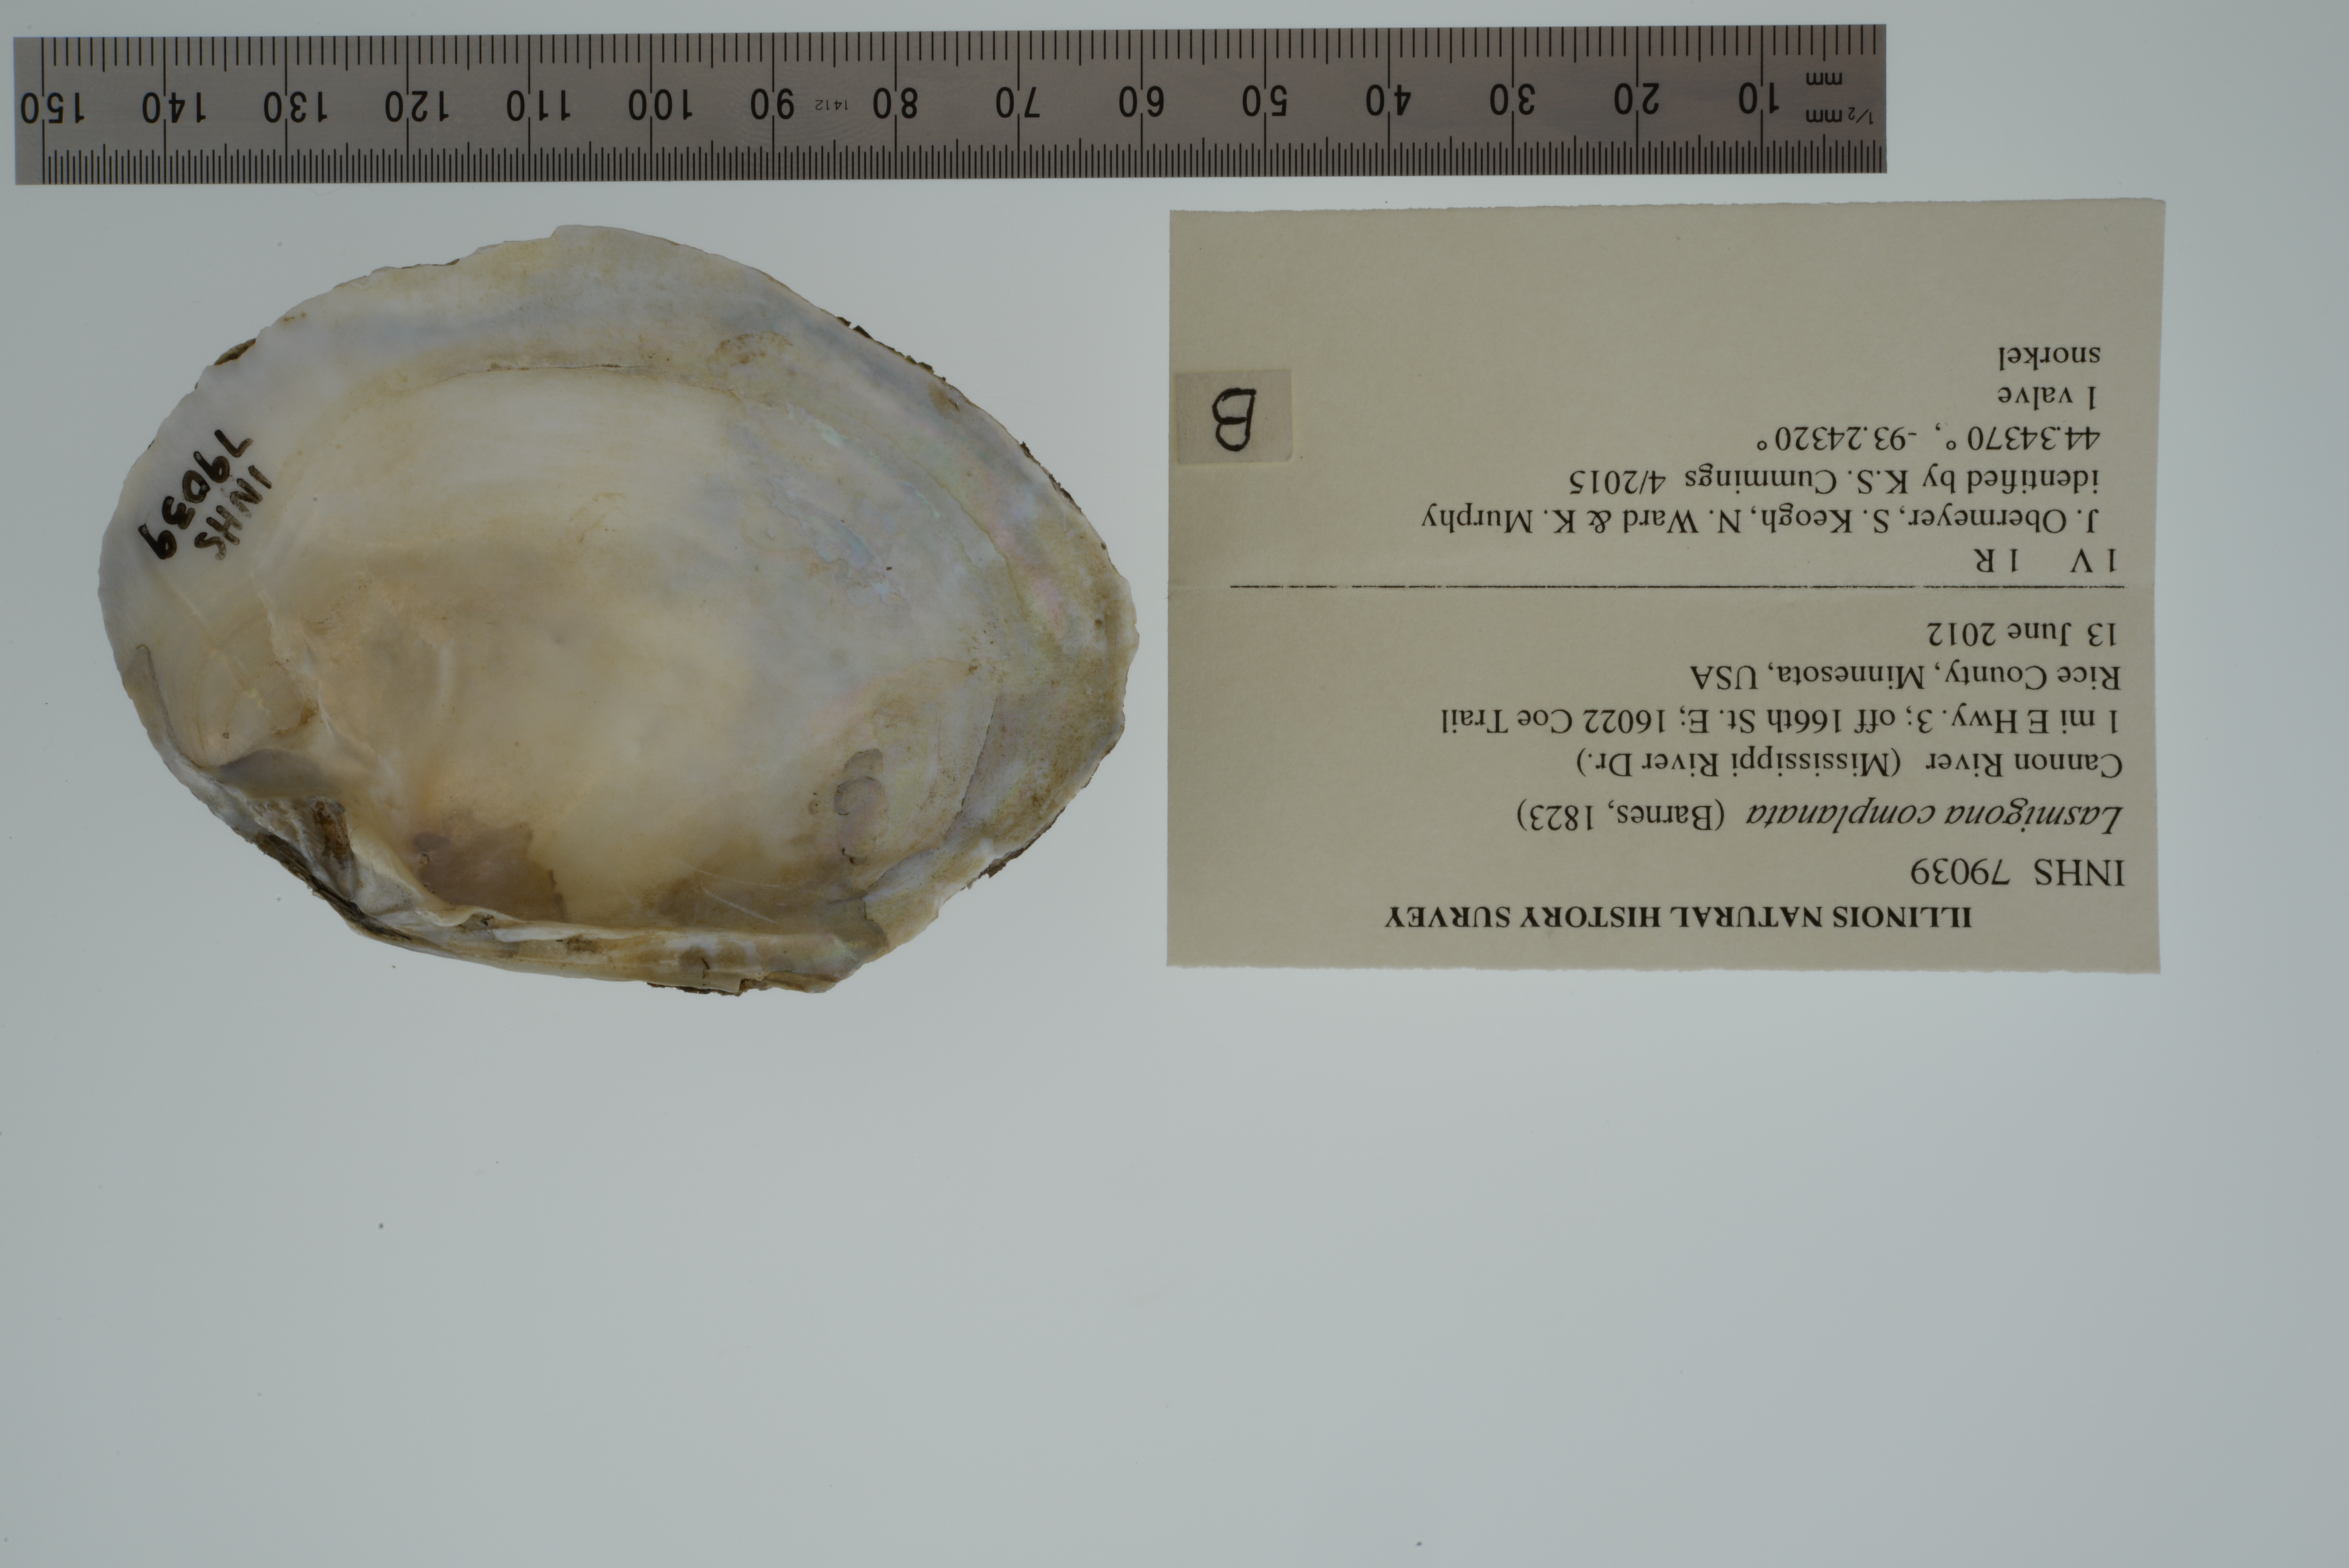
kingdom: Animalia
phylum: Mollusca
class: Bivalvia
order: Unionida
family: Unionidae
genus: Lasmigona
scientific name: Lasmigona complanata
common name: White heelsplitter
